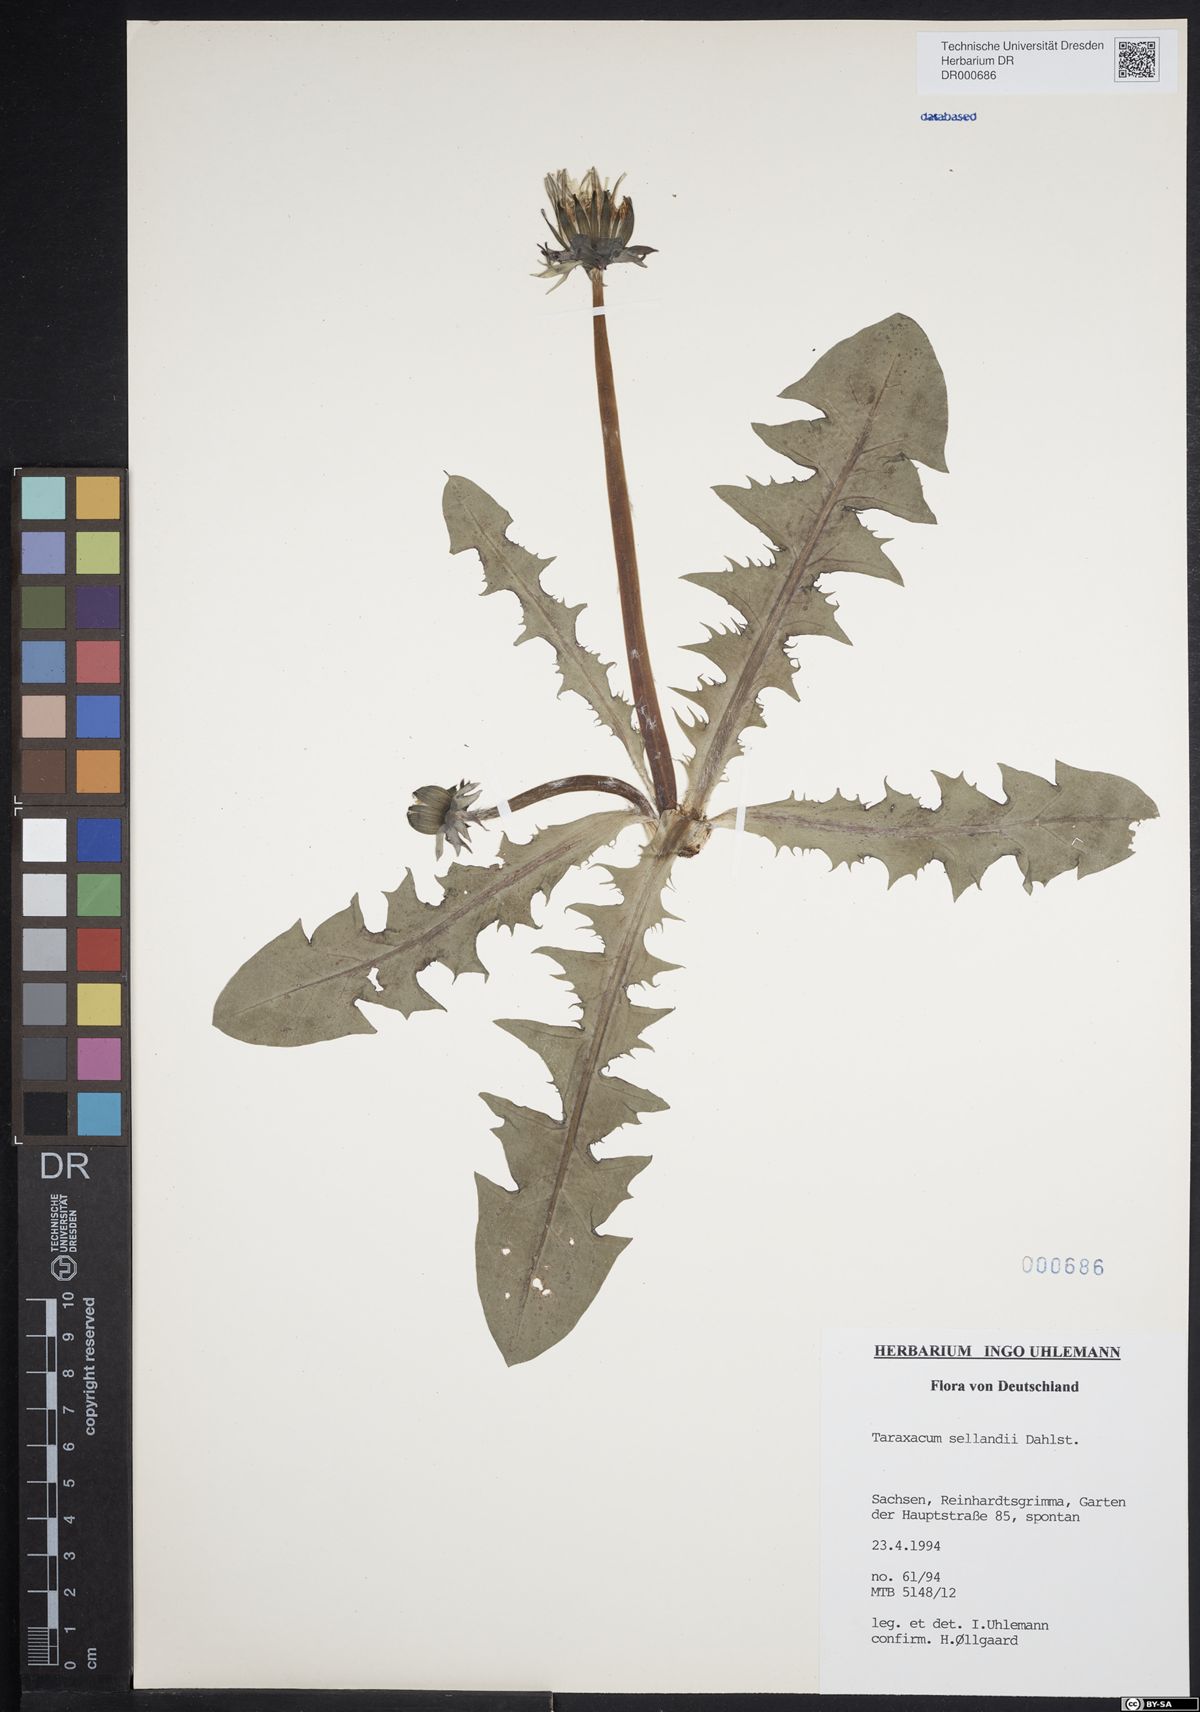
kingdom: Plantae
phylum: Tracheophyta
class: Magnoliopsida
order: Asterales
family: Asteraceae
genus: Taraxacum
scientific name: Taraxacum sellandii
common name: Selland's dandelion
